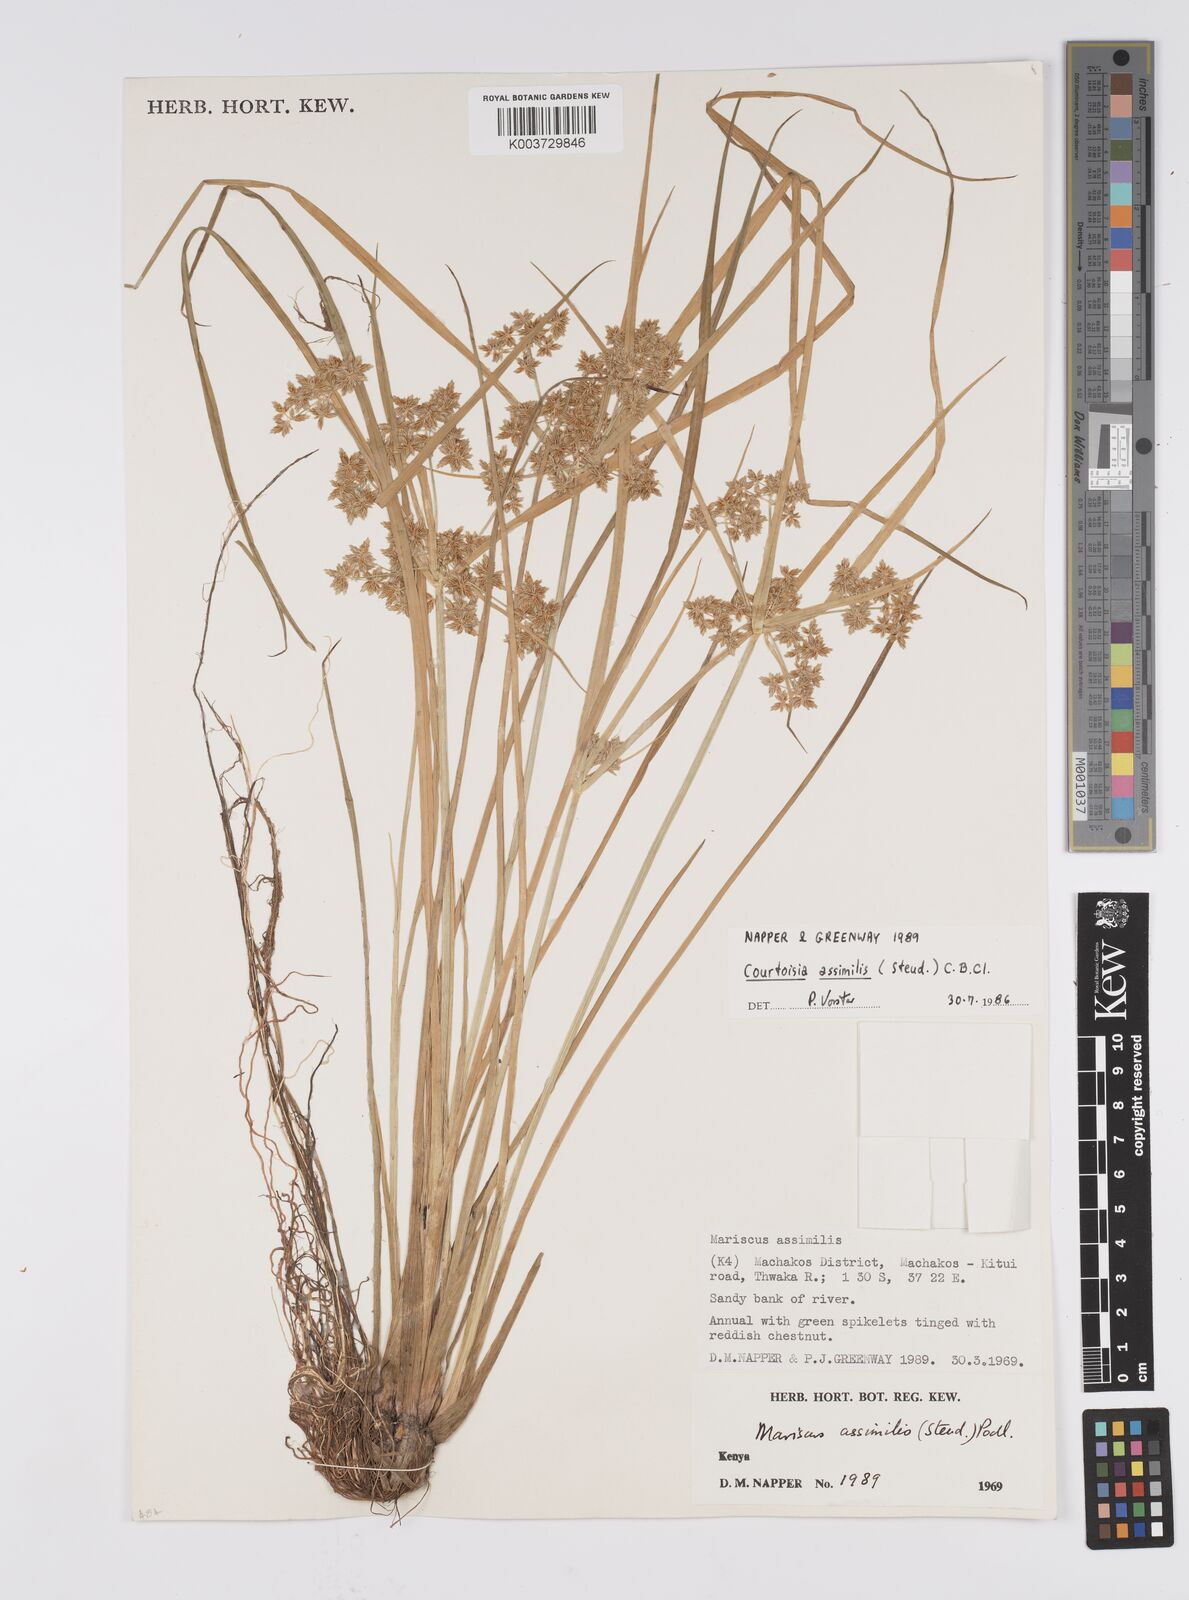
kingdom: Plantae
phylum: Tracheophyta
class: Liliopsida
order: Poales
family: Cyperaceae
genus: Cyperus
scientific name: Cyperus assimilis
